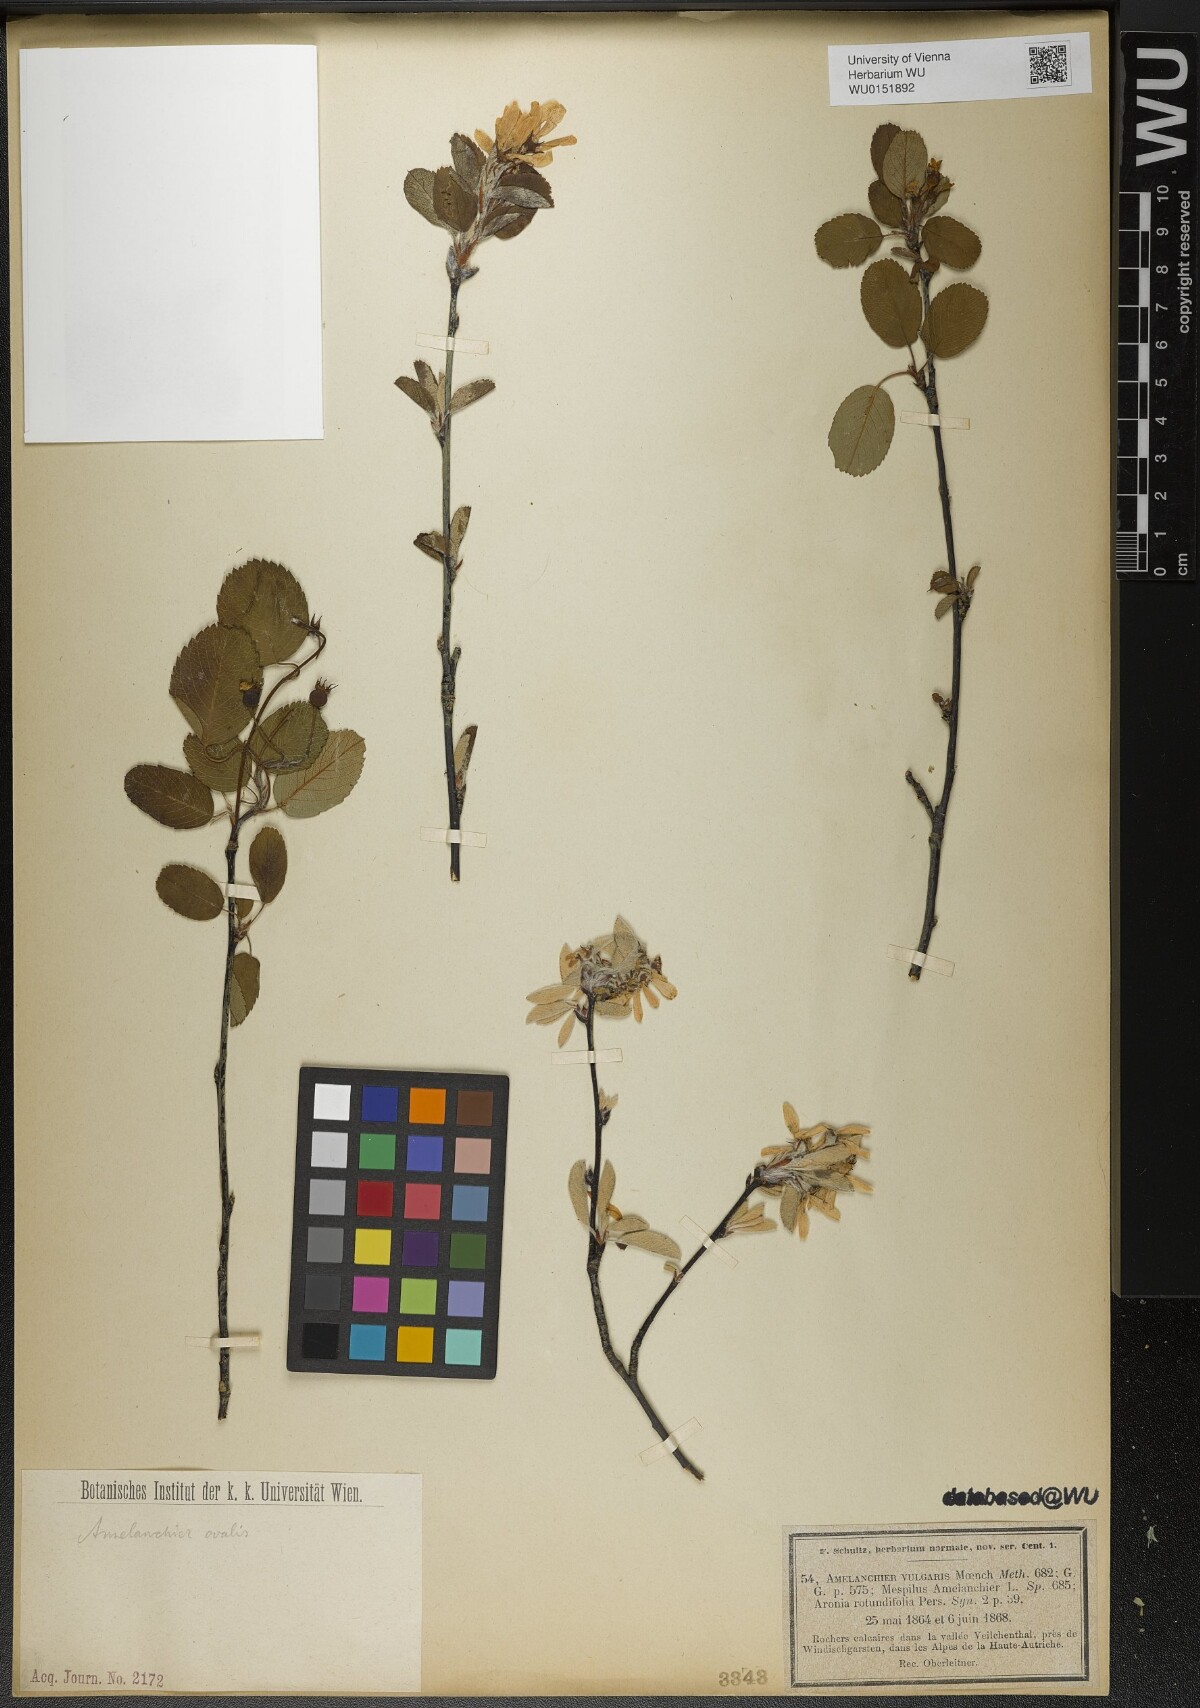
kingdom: Plantae
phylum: Tracheophyta
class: Magnoliopsida
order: Rosales
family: Rosaceae
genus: Amelanchier
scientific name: Amelanchier ovalis
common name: Serviceberry
